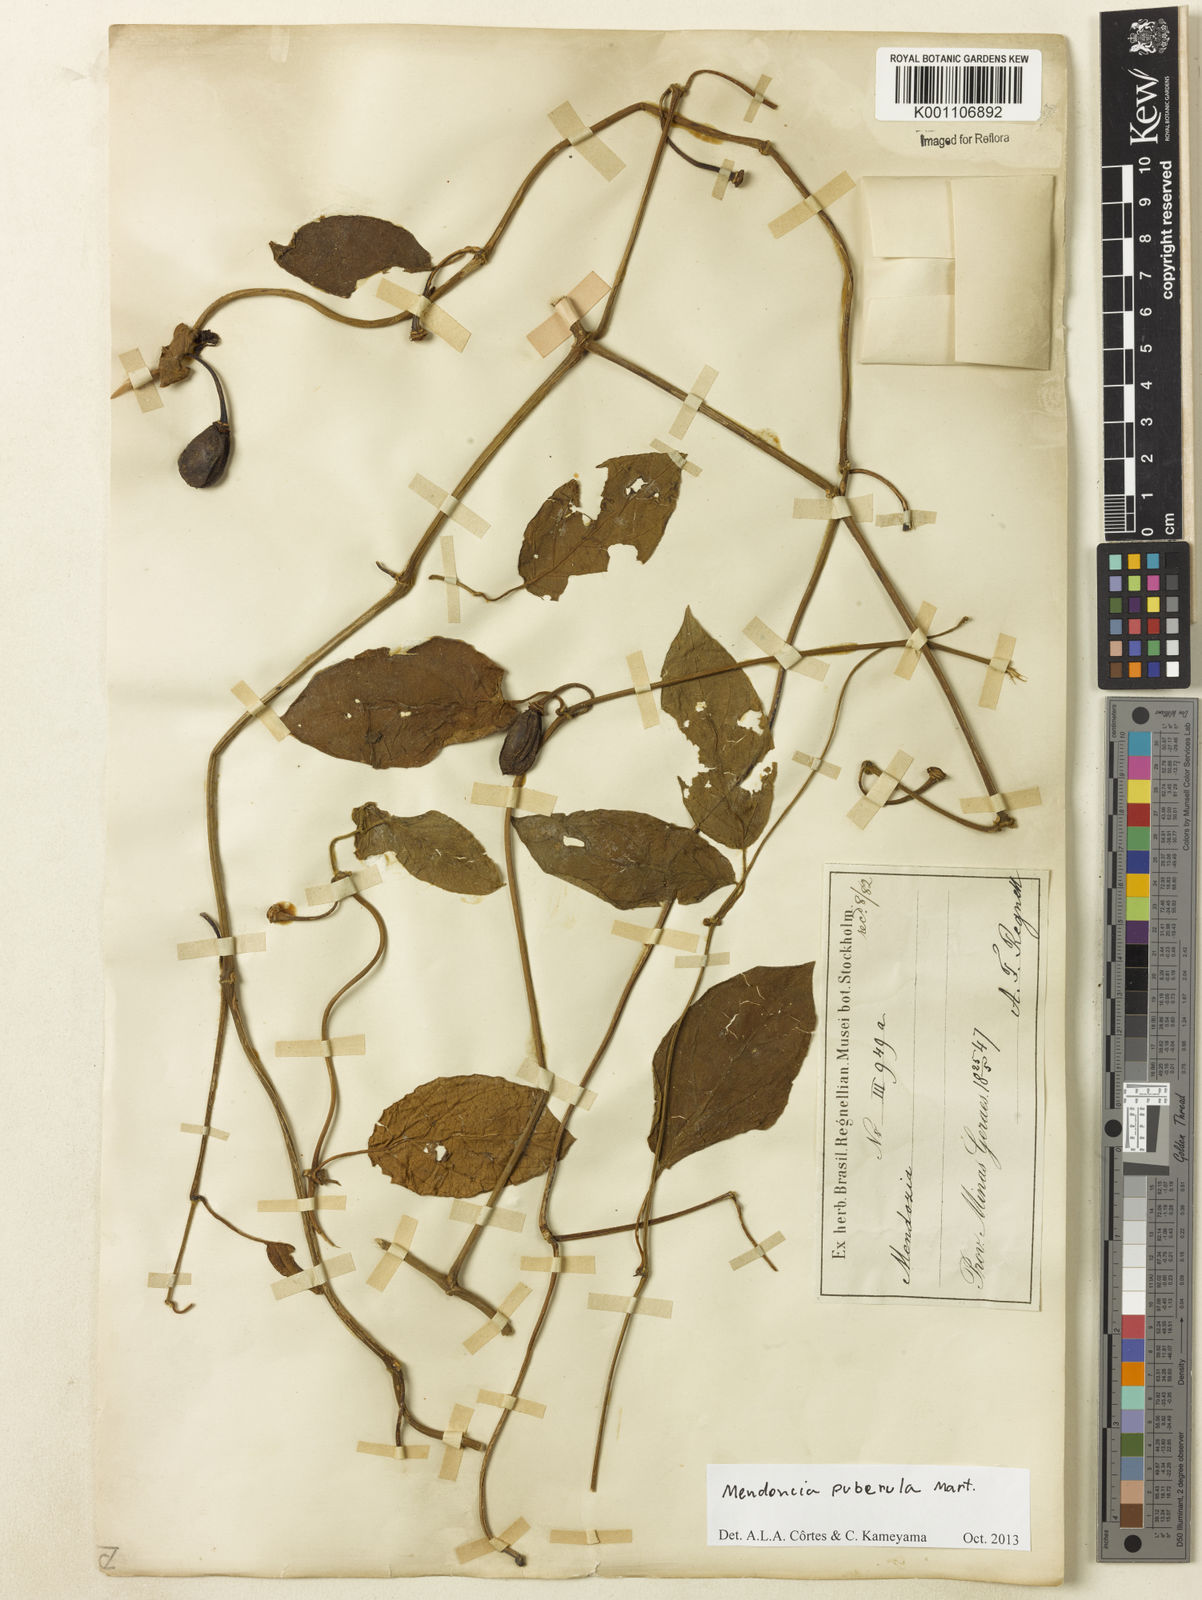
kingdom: Plantae
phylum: Tracheophyta
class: Magnoliopsida
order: Lamiales
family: Acanthaceae
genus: Mendoncia
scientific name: Mendoncia puberula
